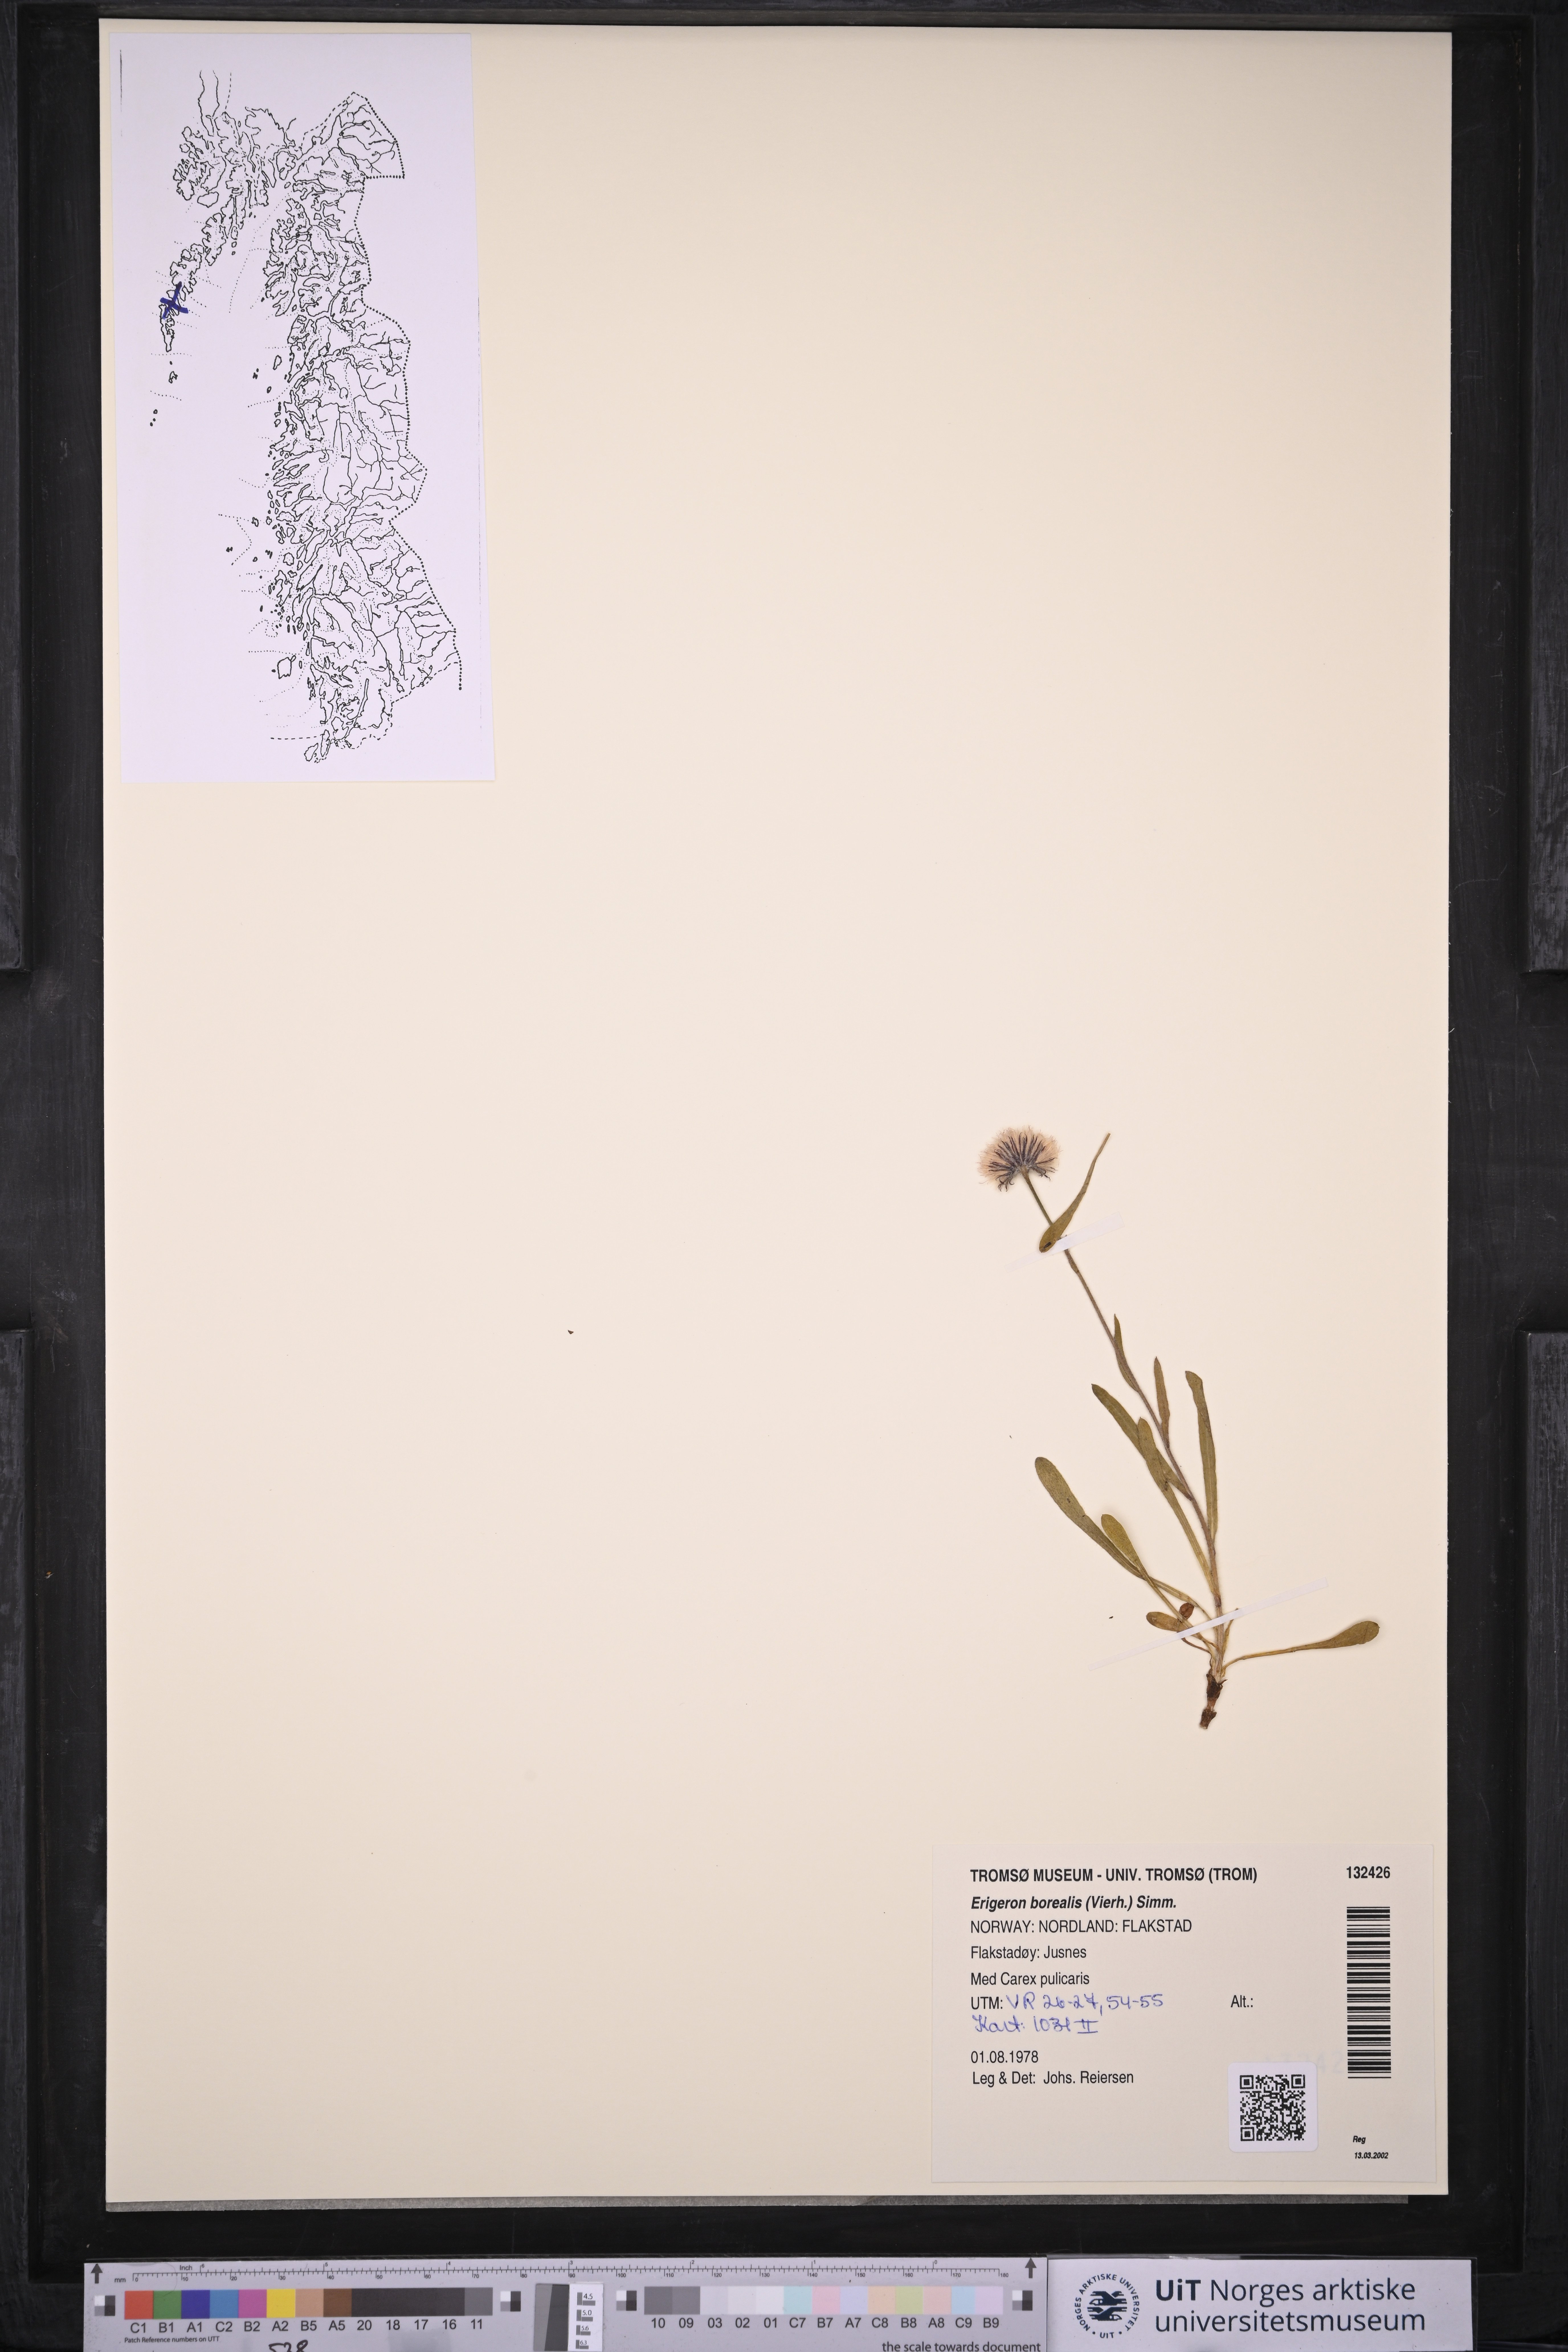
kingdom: Plantae
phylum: Tracheophyta
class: Magnoliopsida
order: Asterales
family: Asteraceae
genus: Erigeron
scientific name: Erigeron borealis
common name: Alpine fleabane
